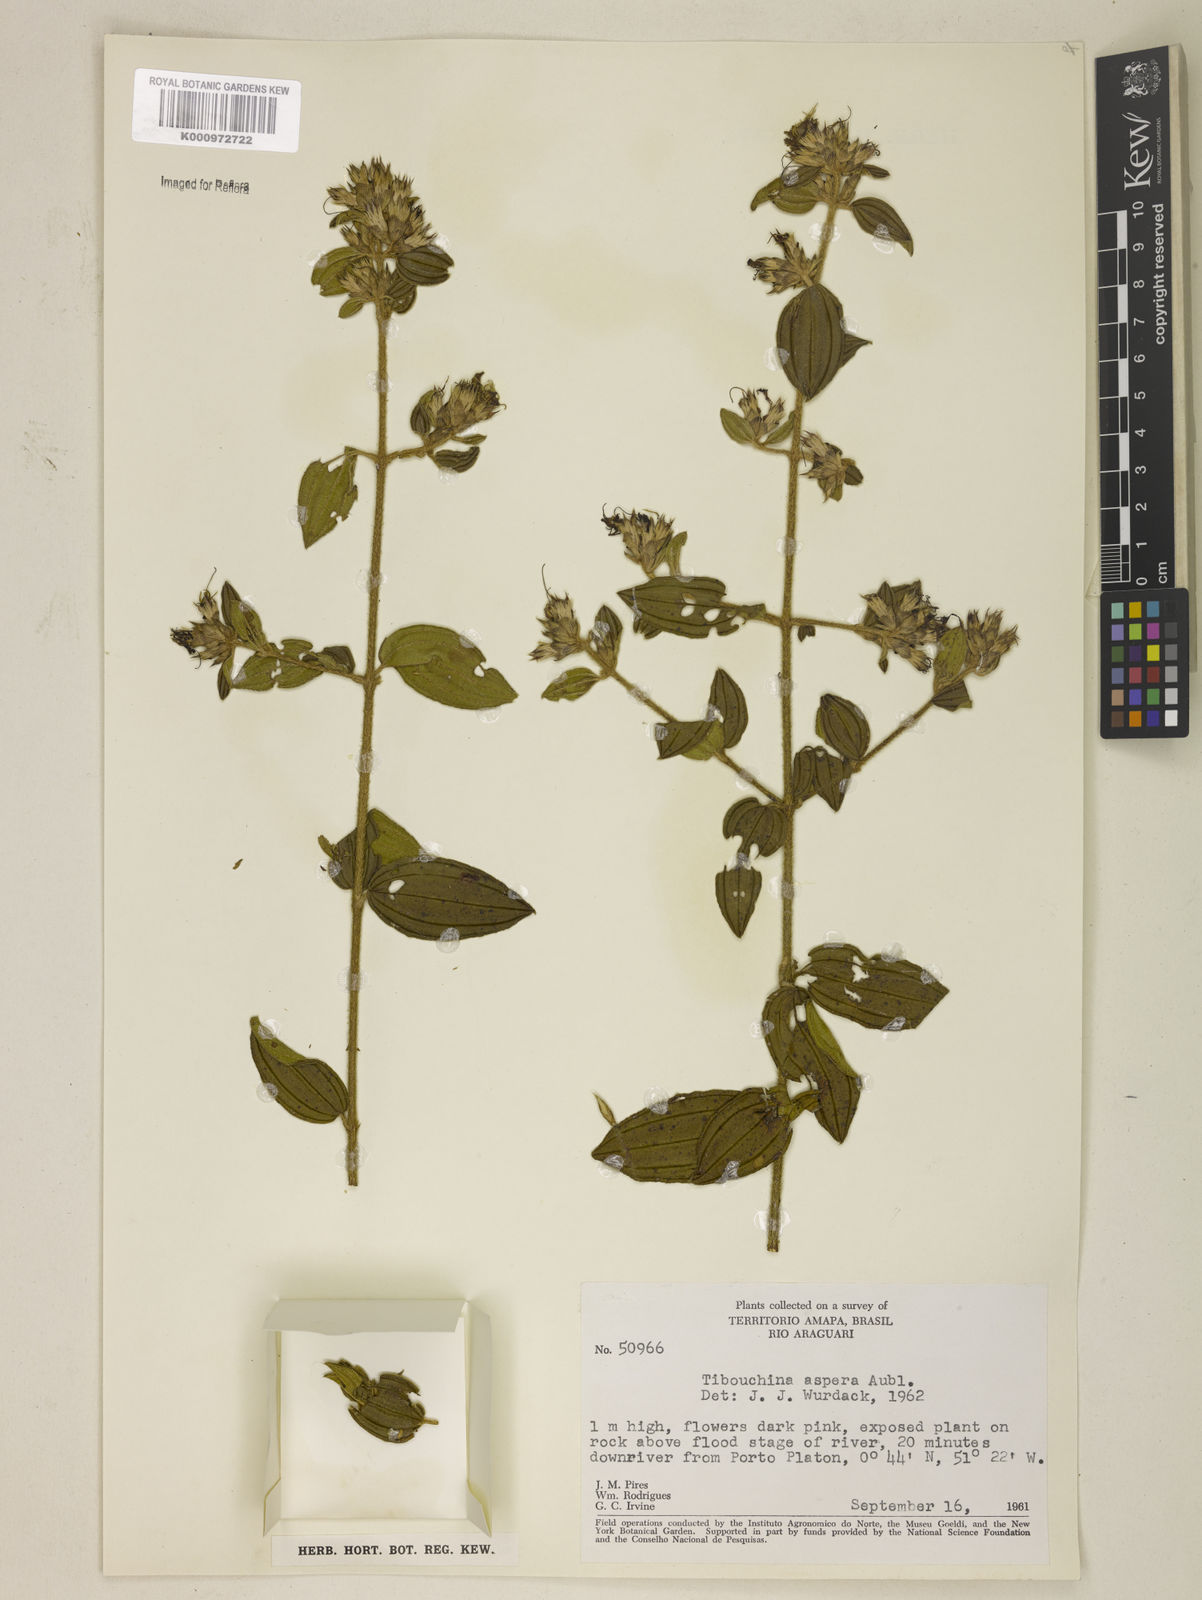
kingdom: Plantae
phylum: Tracheophyta
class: Magnoliopsida
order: Myrtales
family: Melastomataceae
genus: Tibouchina
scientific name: Tibouchina aspera
